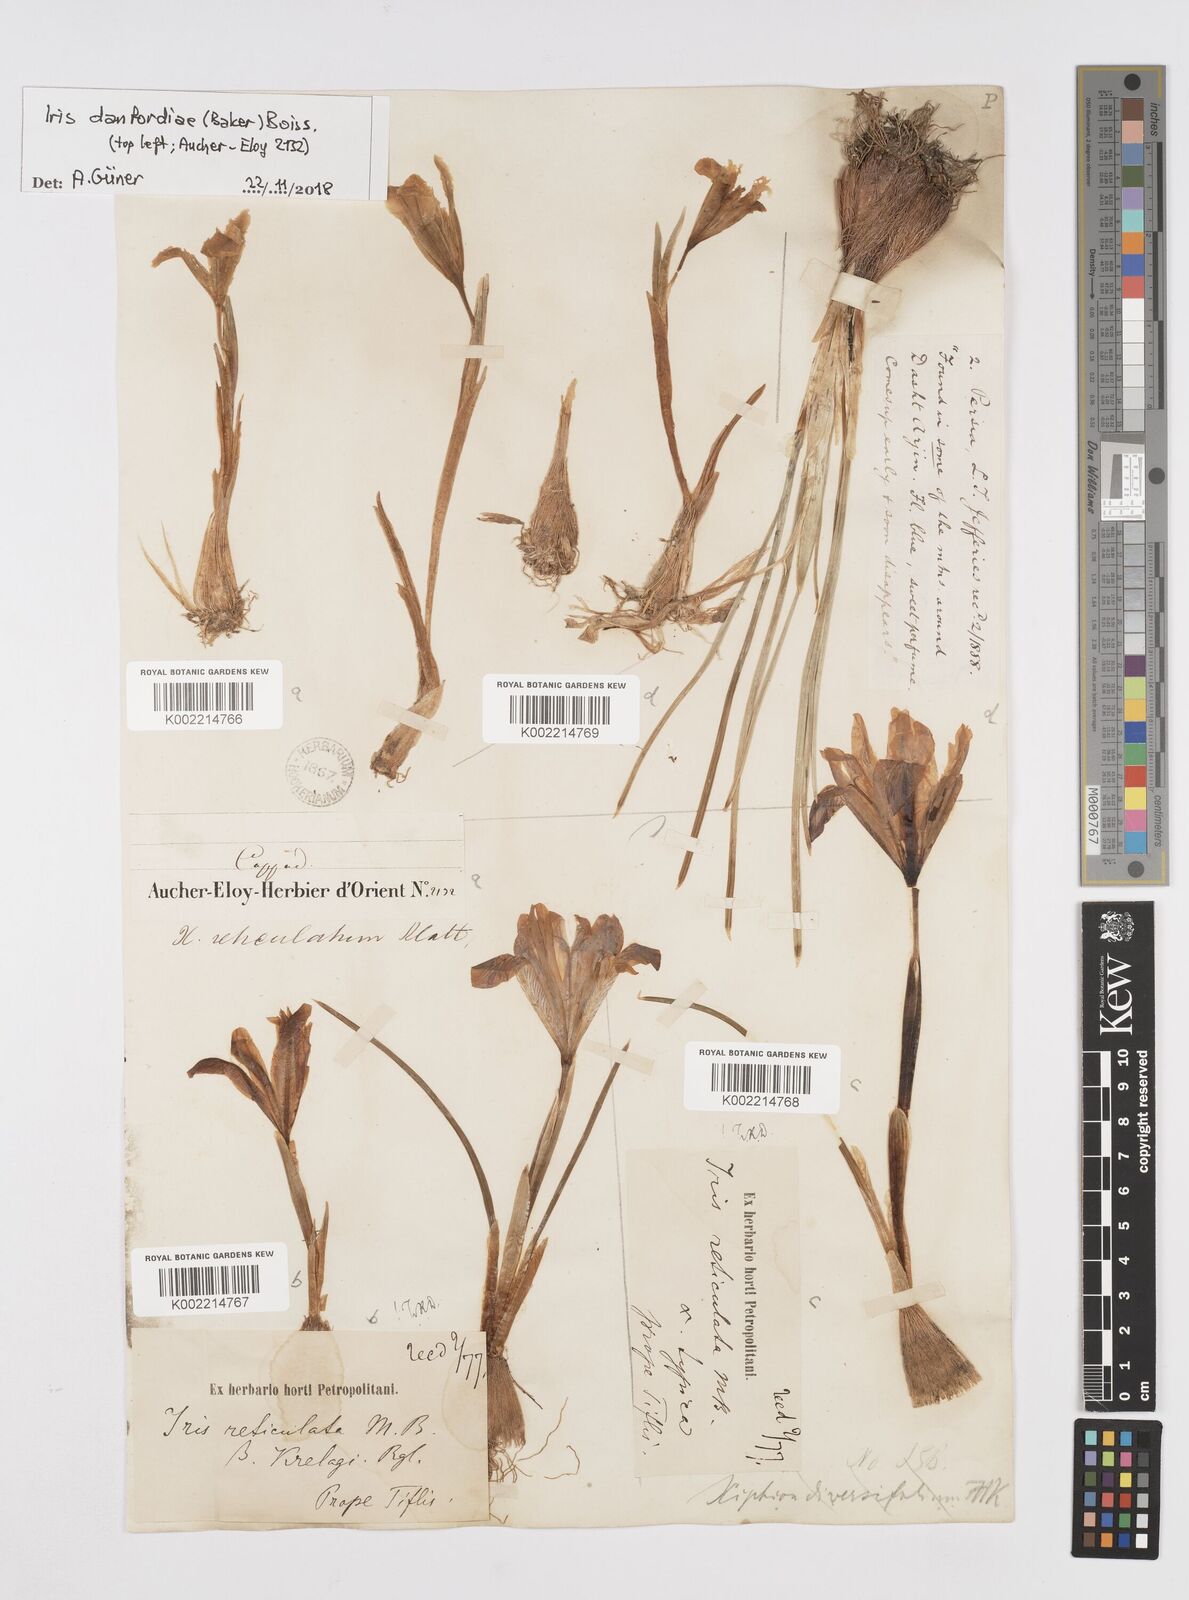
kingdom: Plantae
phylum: Tracheophyta
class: Liliopsida
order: Asparagales
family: Iridaceae
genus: Iris
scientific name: Iris reticulata
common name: Netted iris
